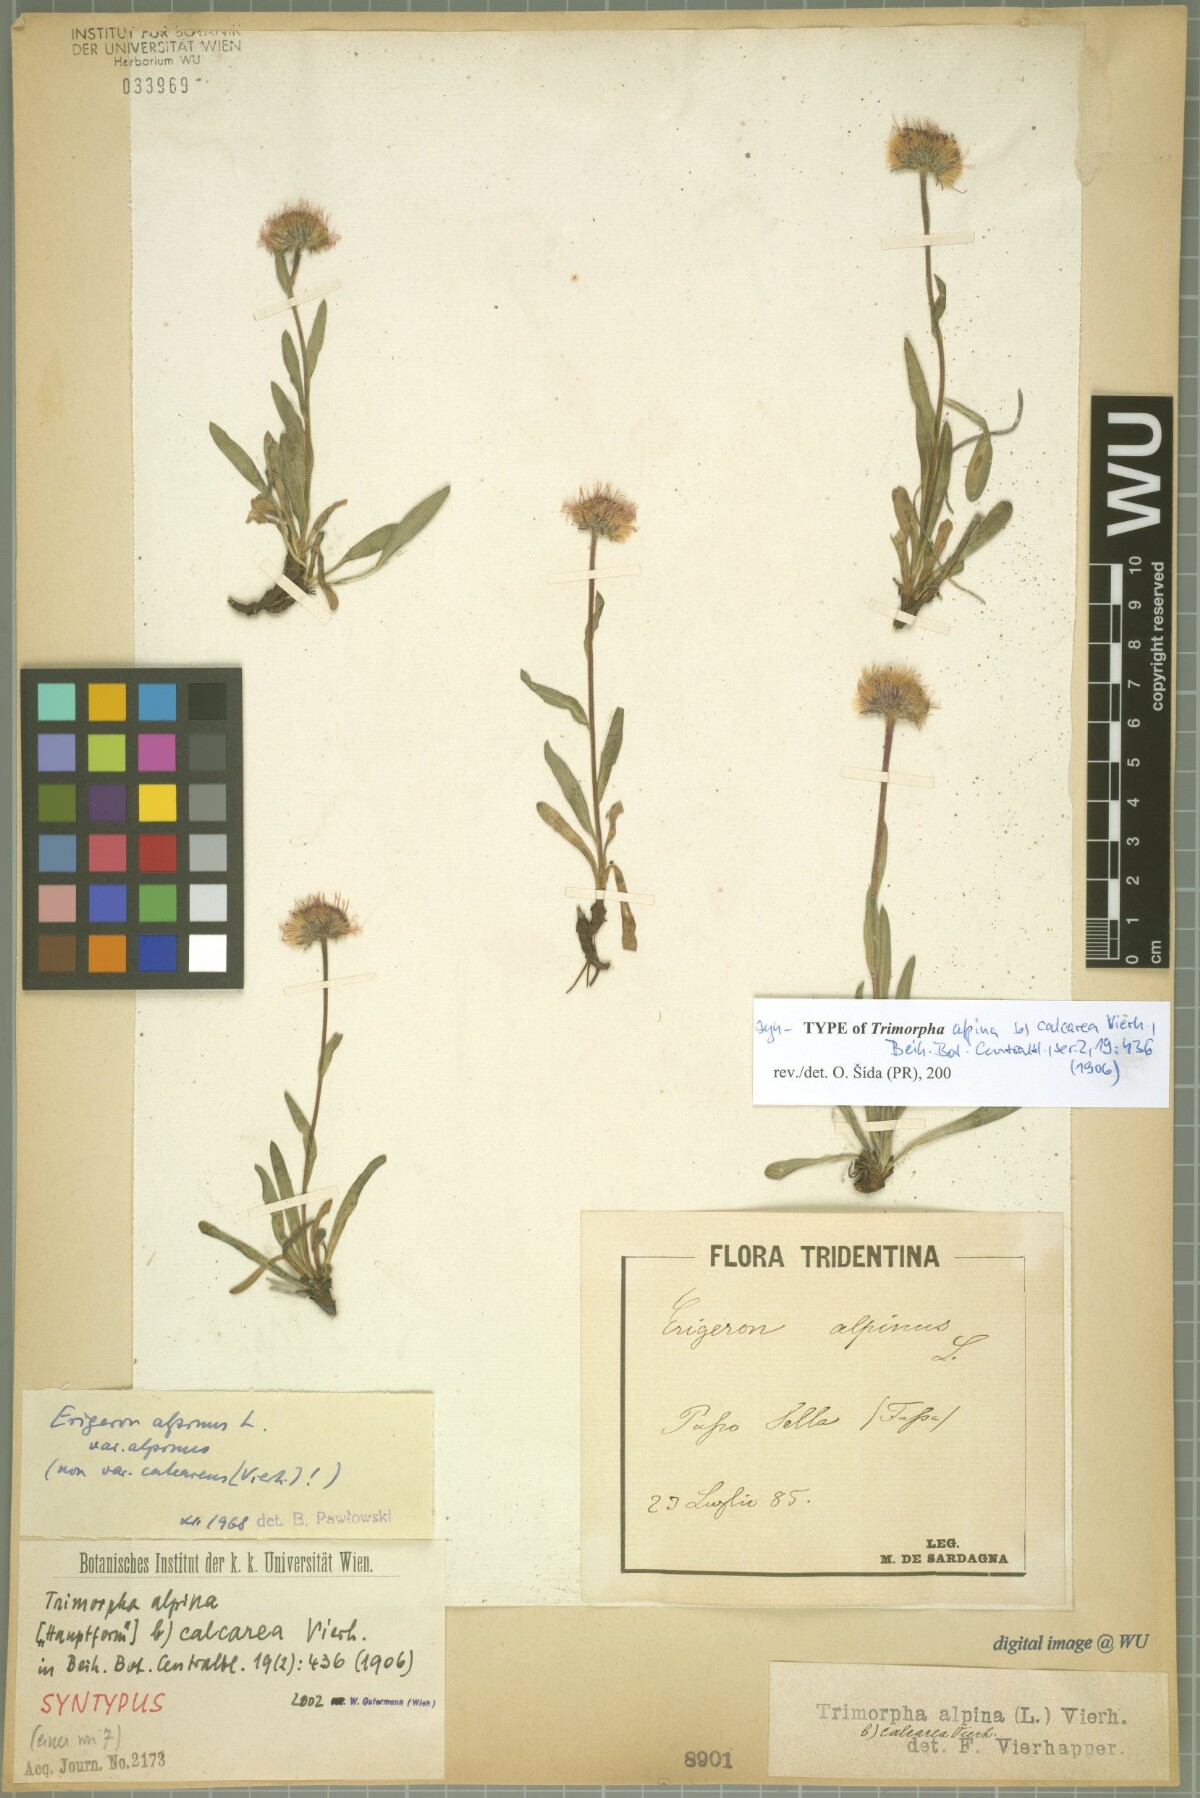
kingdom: Plantae
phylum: Tracheophyta
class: Magnoliopsida
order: Asterales
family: Asteraceae
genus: Erigeron
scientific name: Erigeron alpinus
